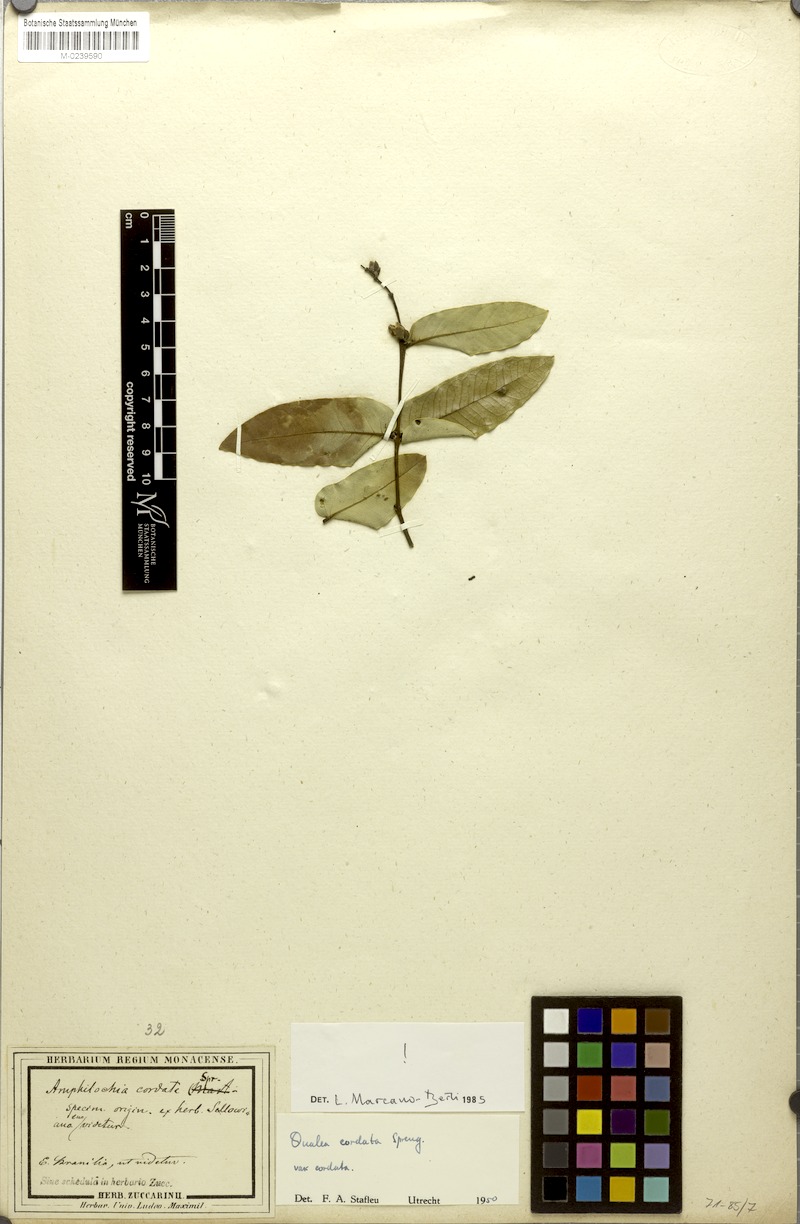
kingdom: Plantae
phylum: Tracheophyta
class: Magnoliopsida
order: Myrtales
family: Vochysiaceae
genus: Qualea
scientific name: Qualea cordata
